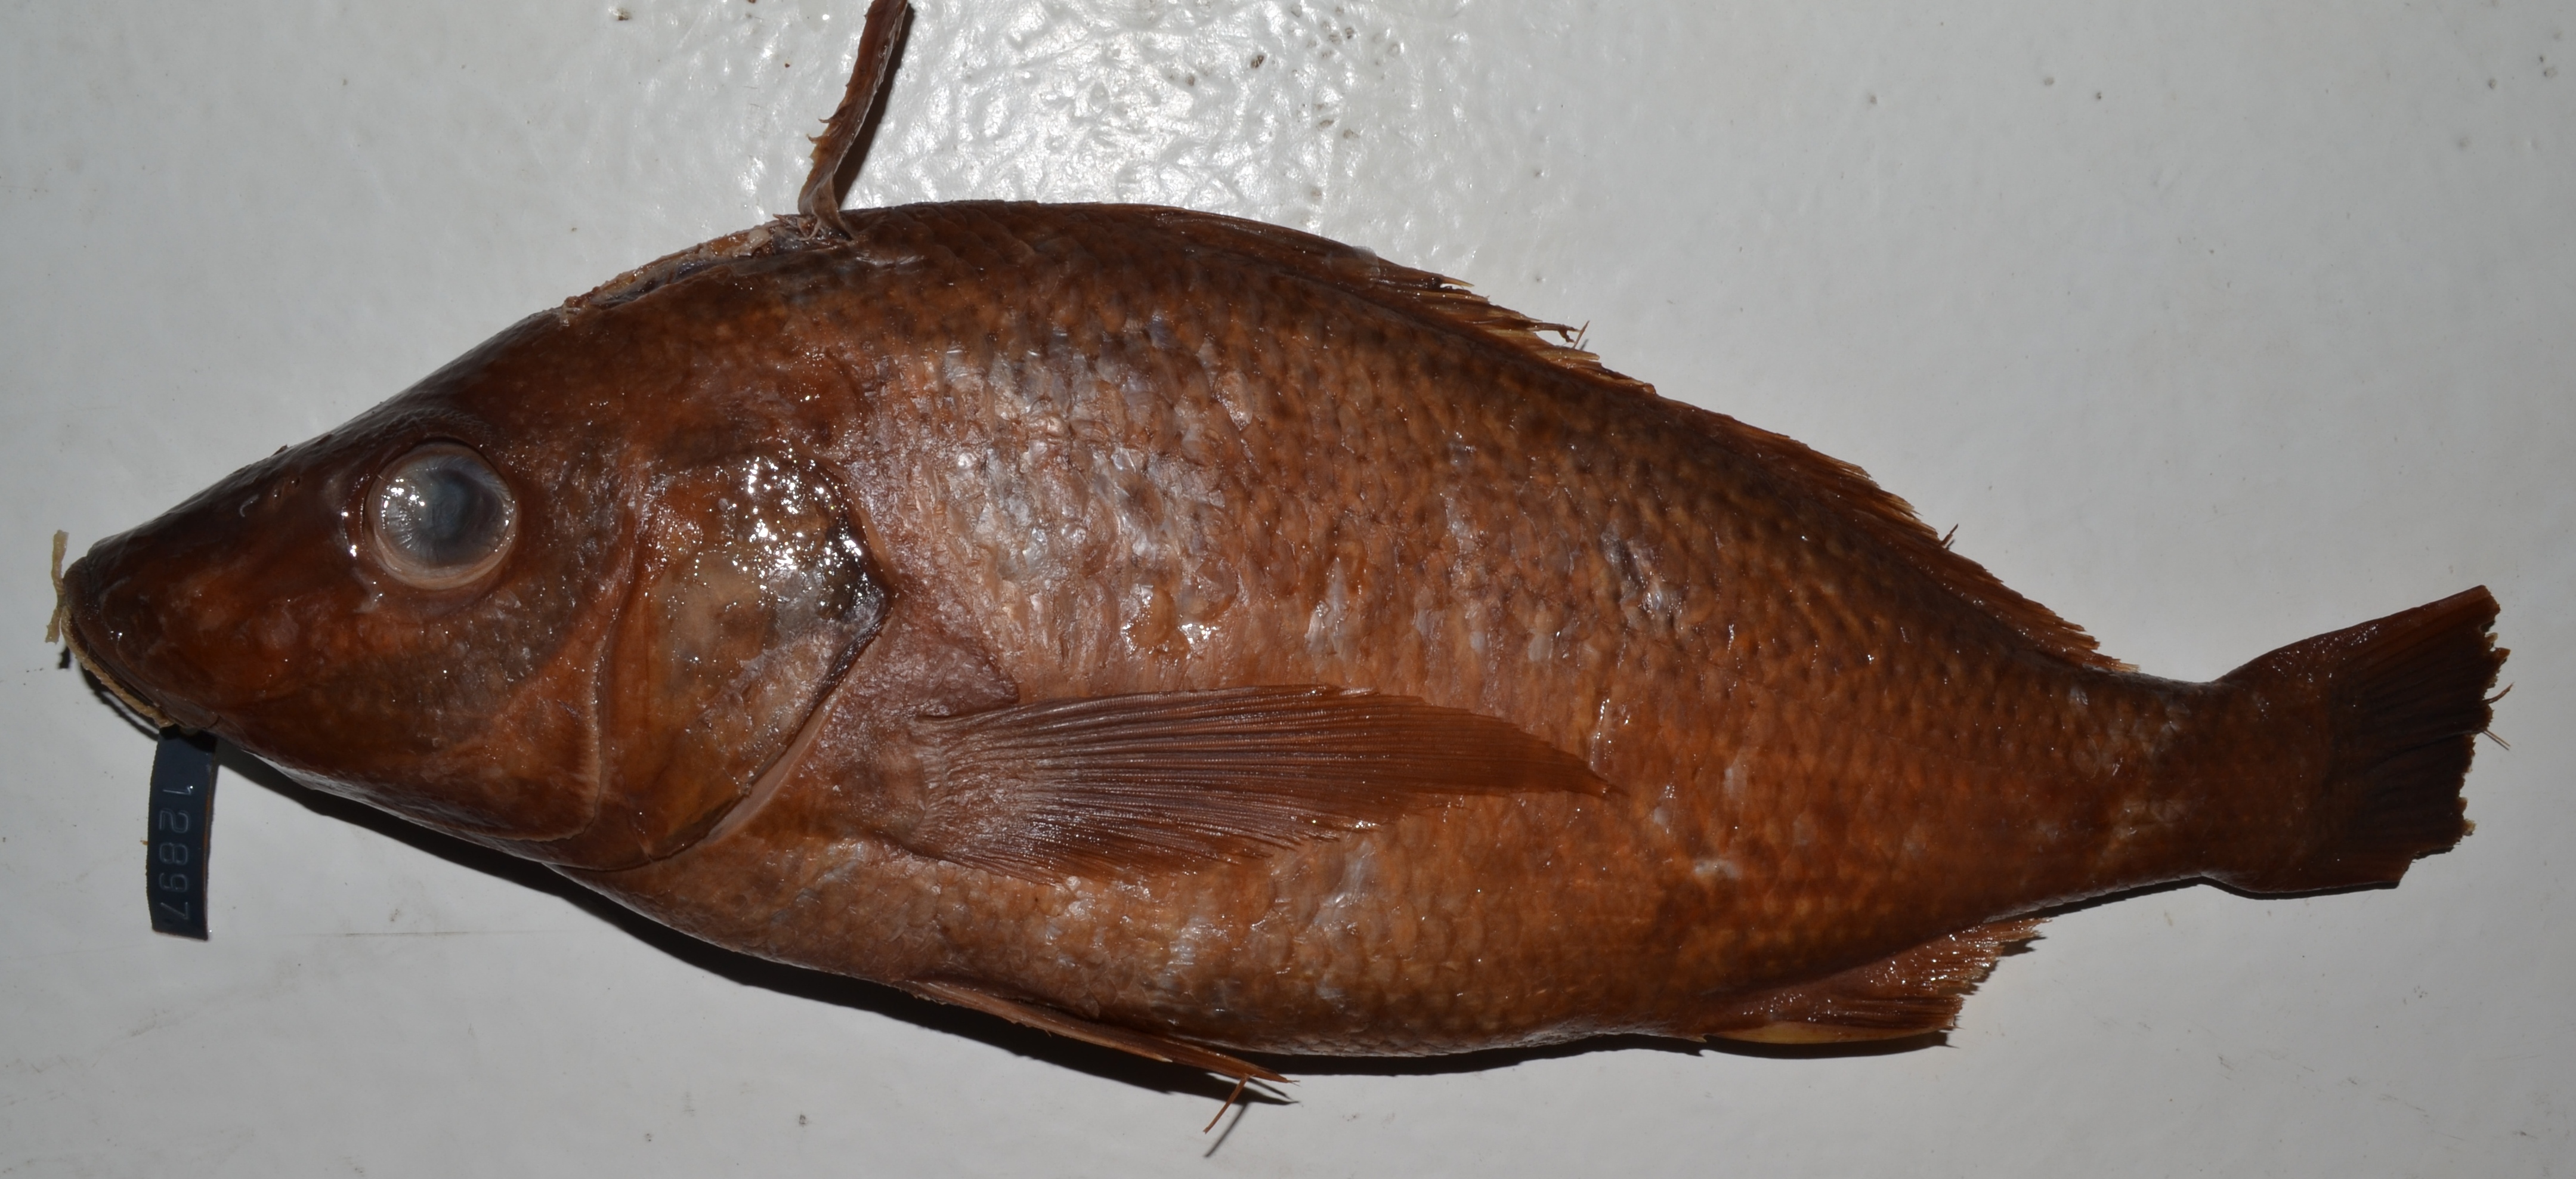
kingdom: Animalia
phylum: Chordata
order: Perciformes
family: Haemulidae
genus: Pomadasys
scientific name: Pomadasys rogerii
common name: Pigsnout grunt
